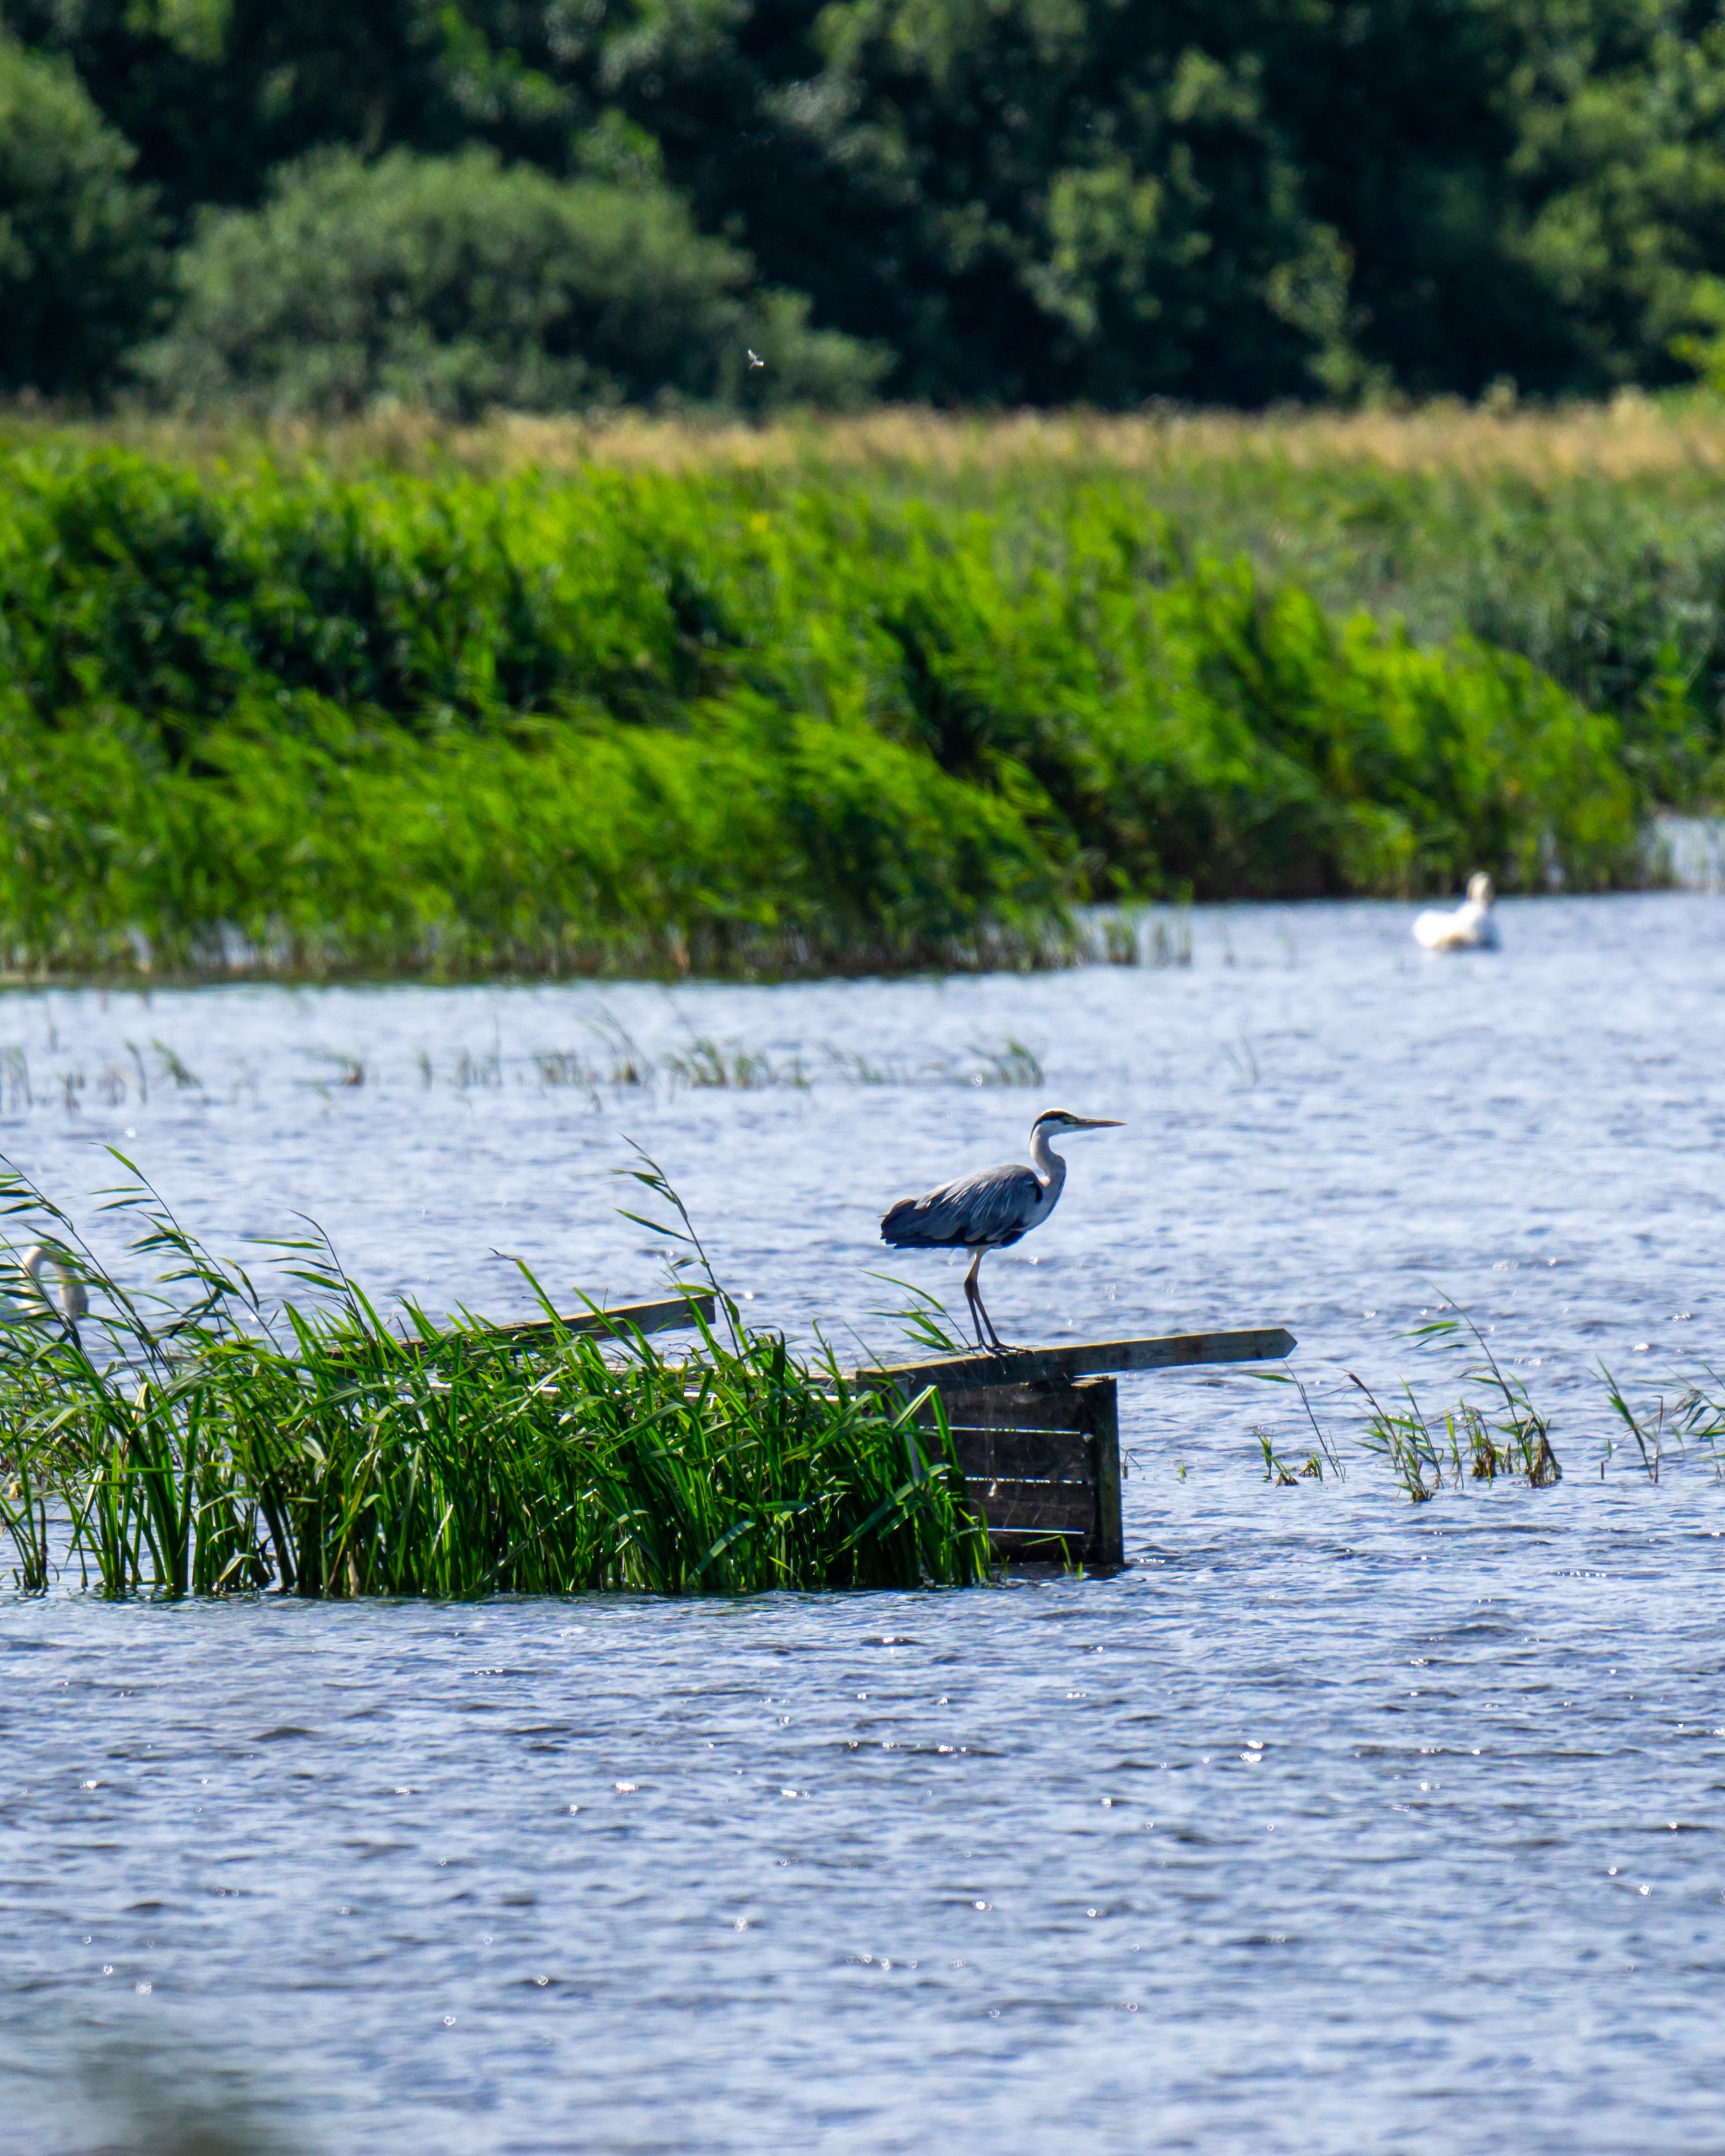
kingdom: Animalia
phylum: Chordata
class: Aves
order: Pelecaniformes
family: Ardeidae
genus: Ardea
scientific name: Ardea cinerea
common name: Fiskehejre
